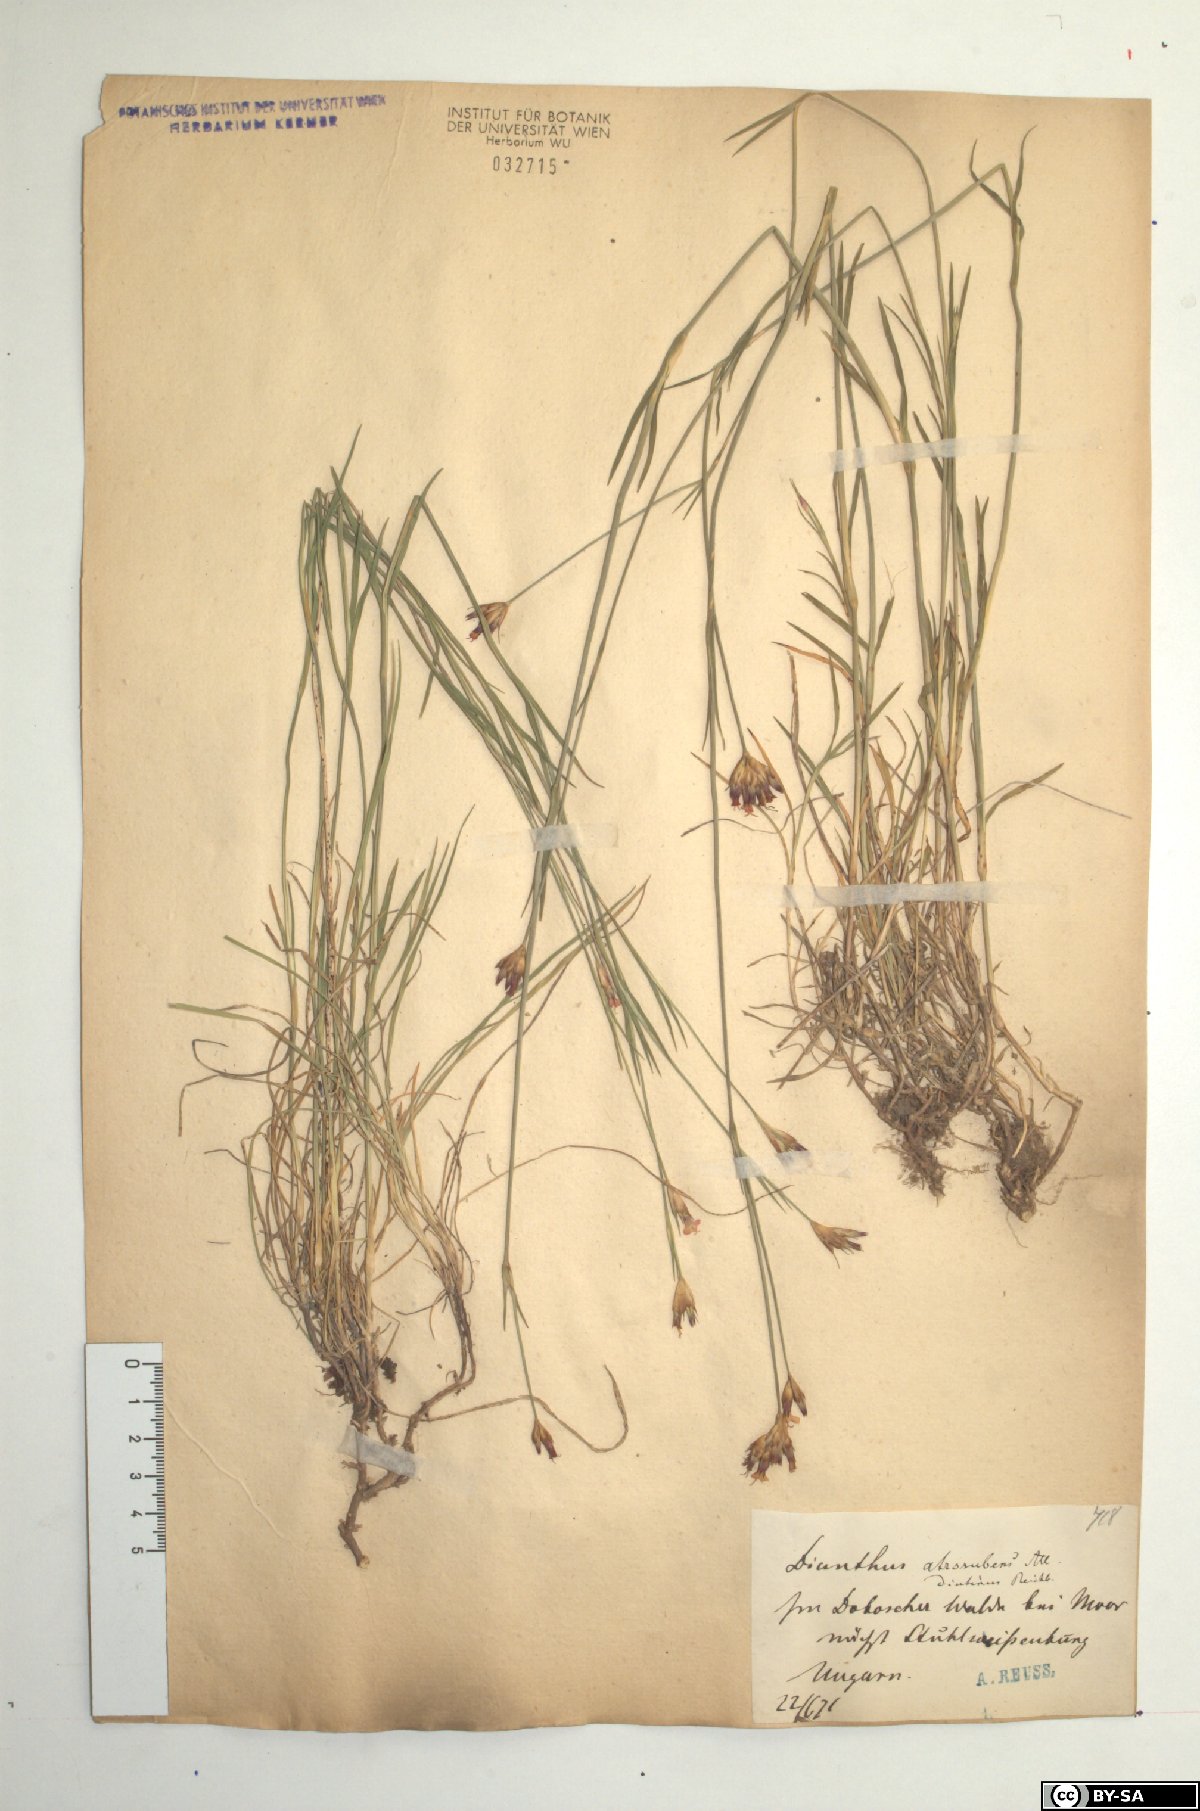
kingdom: Plantae
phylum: Tracheophyta
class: Magnoliopsida
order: Caryophyllales
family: Caryophyllaceae
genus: Dianthus
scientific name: Dianthus carthusianorum
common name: Carthusian pink
